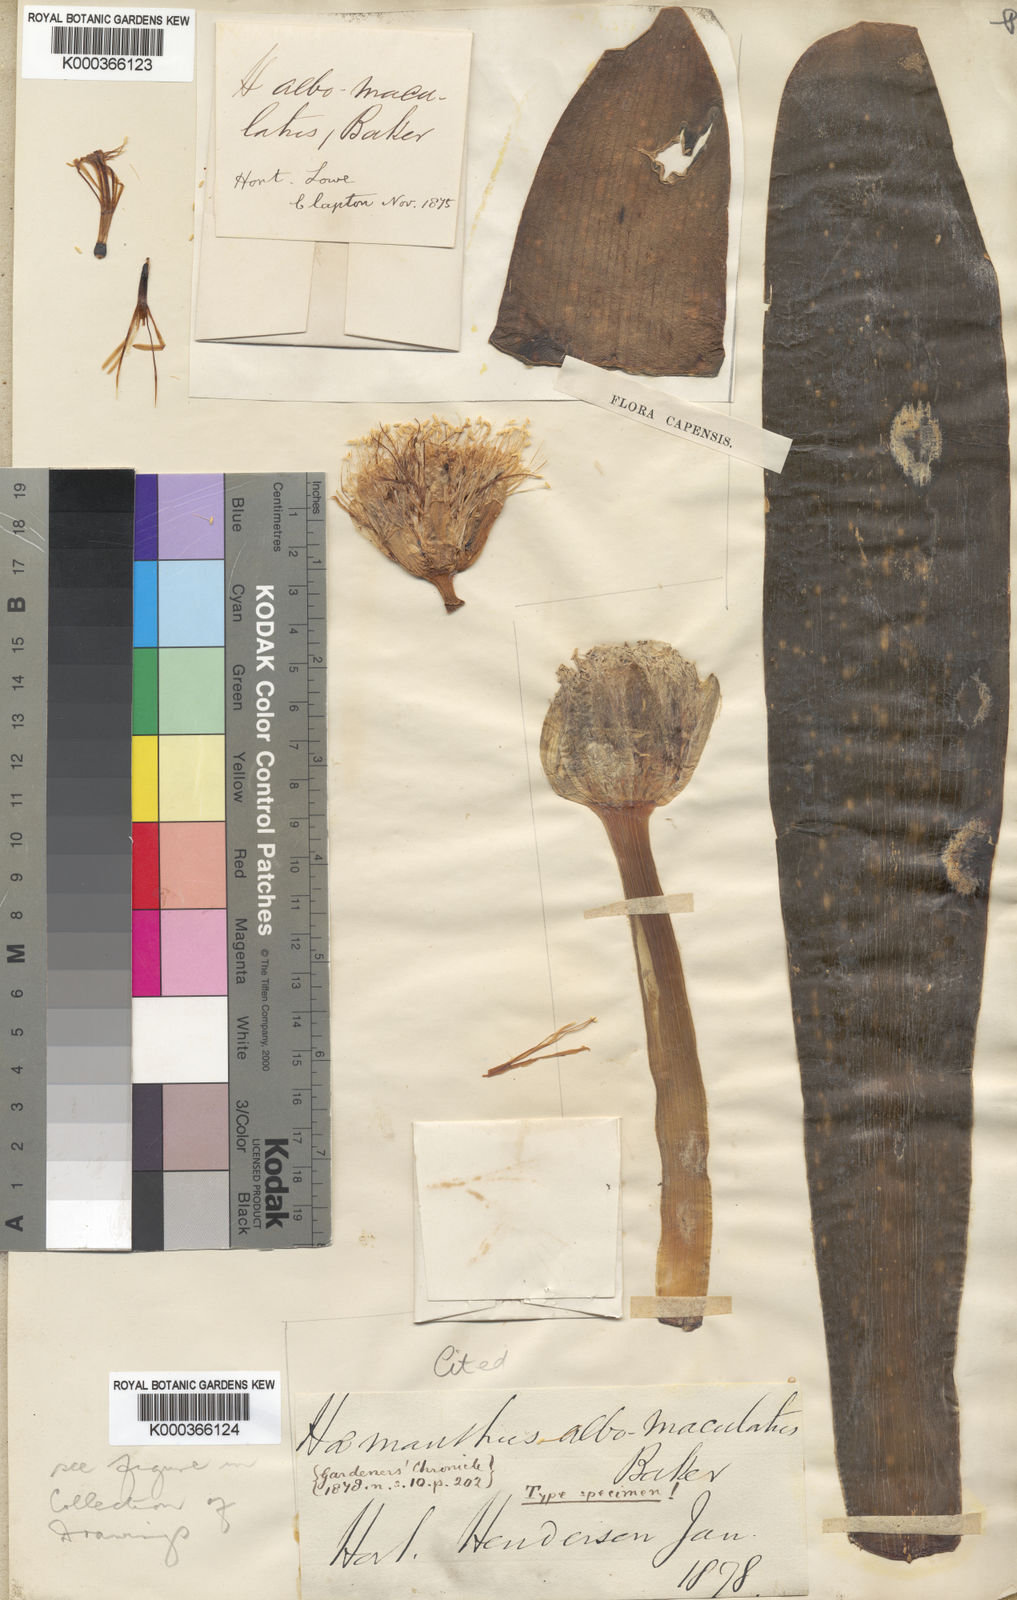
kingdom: Plantae
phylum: Tracheophyta
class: Liliopsida
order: Asparagales
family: Amaryllidaceae
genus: Haemanthus
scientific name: Haemanthus albiflos
